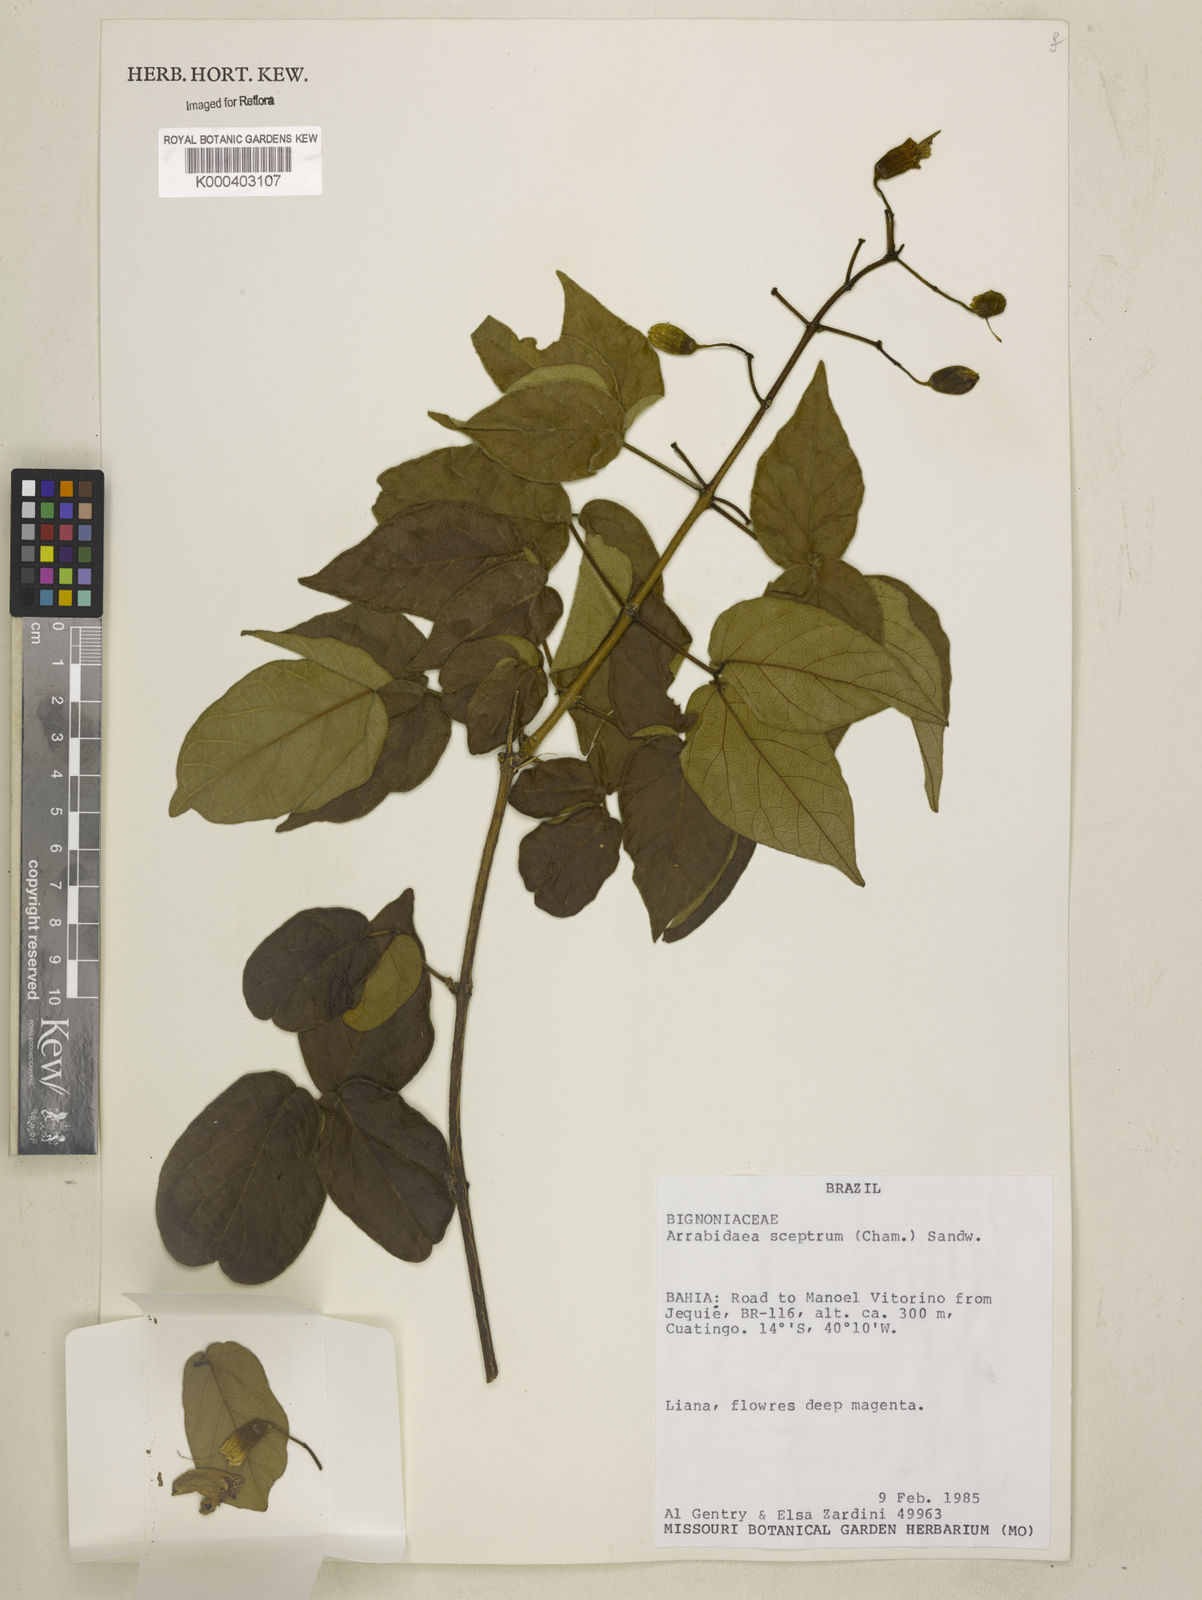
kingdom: Plantae
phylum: Tracheophyta
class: Magnoliopsida
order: Lamiales
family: Bignoniaceae
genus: Cuspidaria
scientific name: Cuspidaria sceptrum
